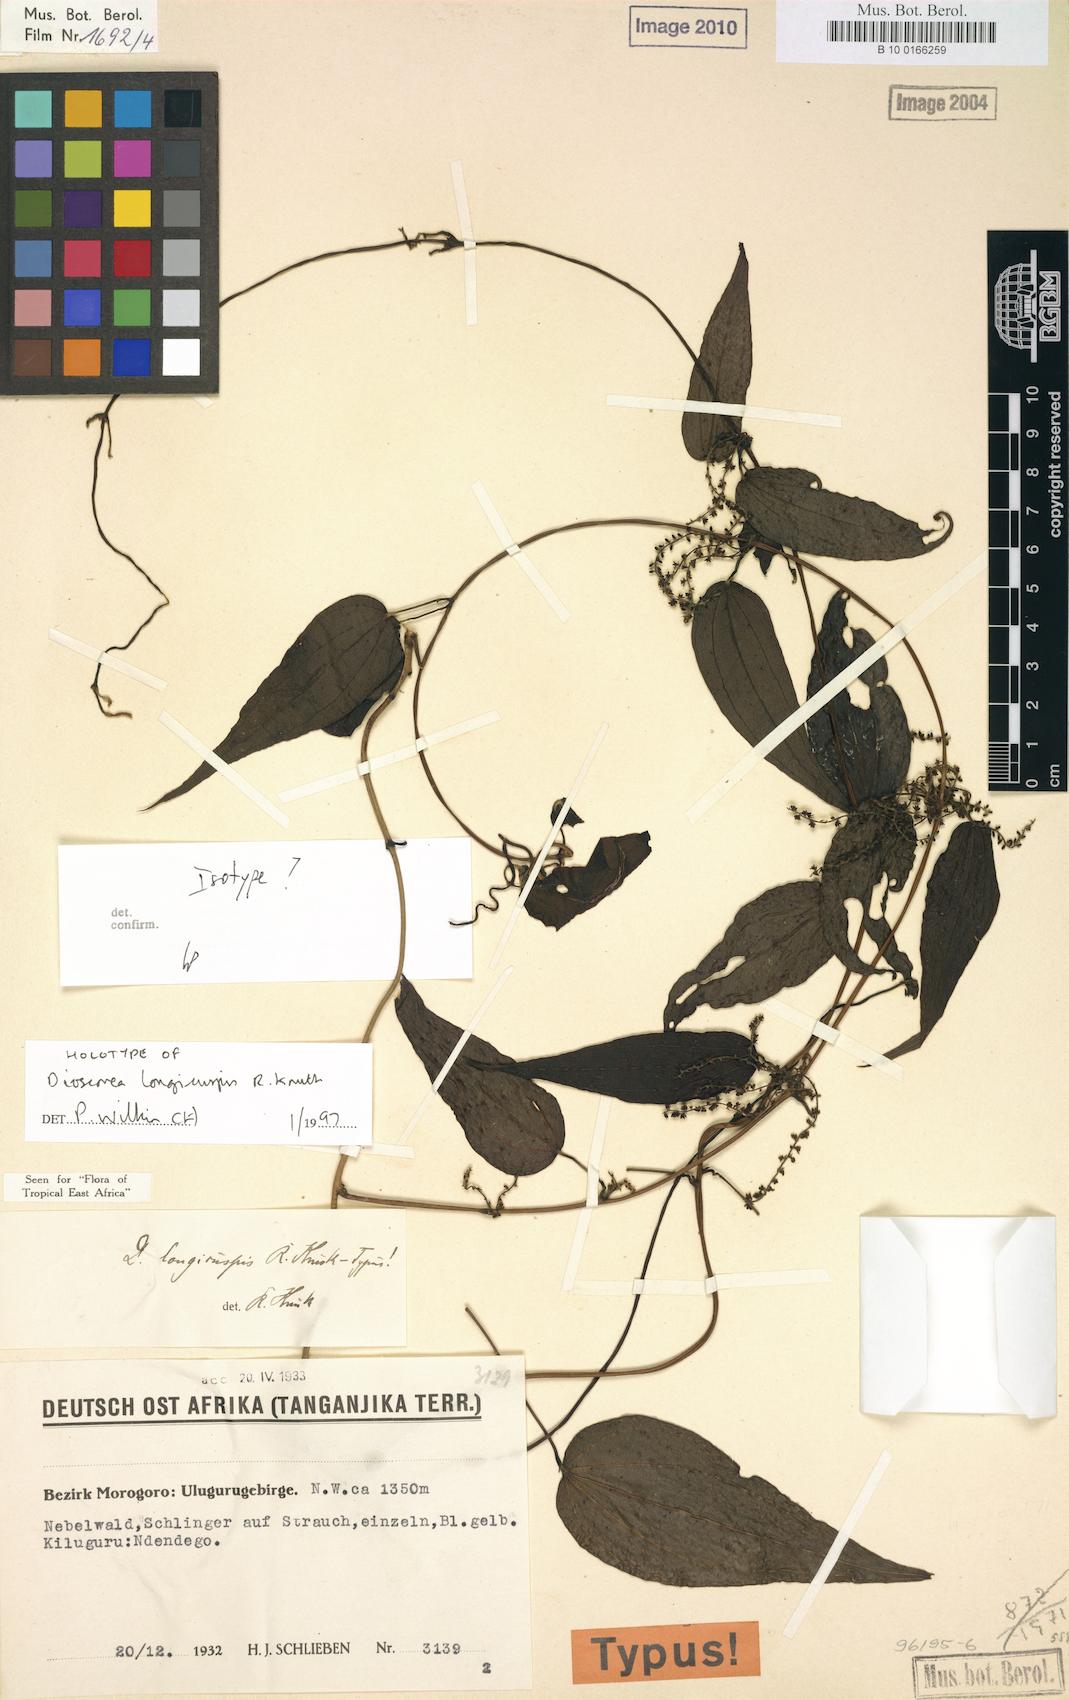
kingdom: Plantae
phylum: Tracheophyta
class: Liliopsida
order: Dioscoreales
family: Dioscoreaceae
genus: Dioscorea
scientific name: Dioscorea longicuspis
